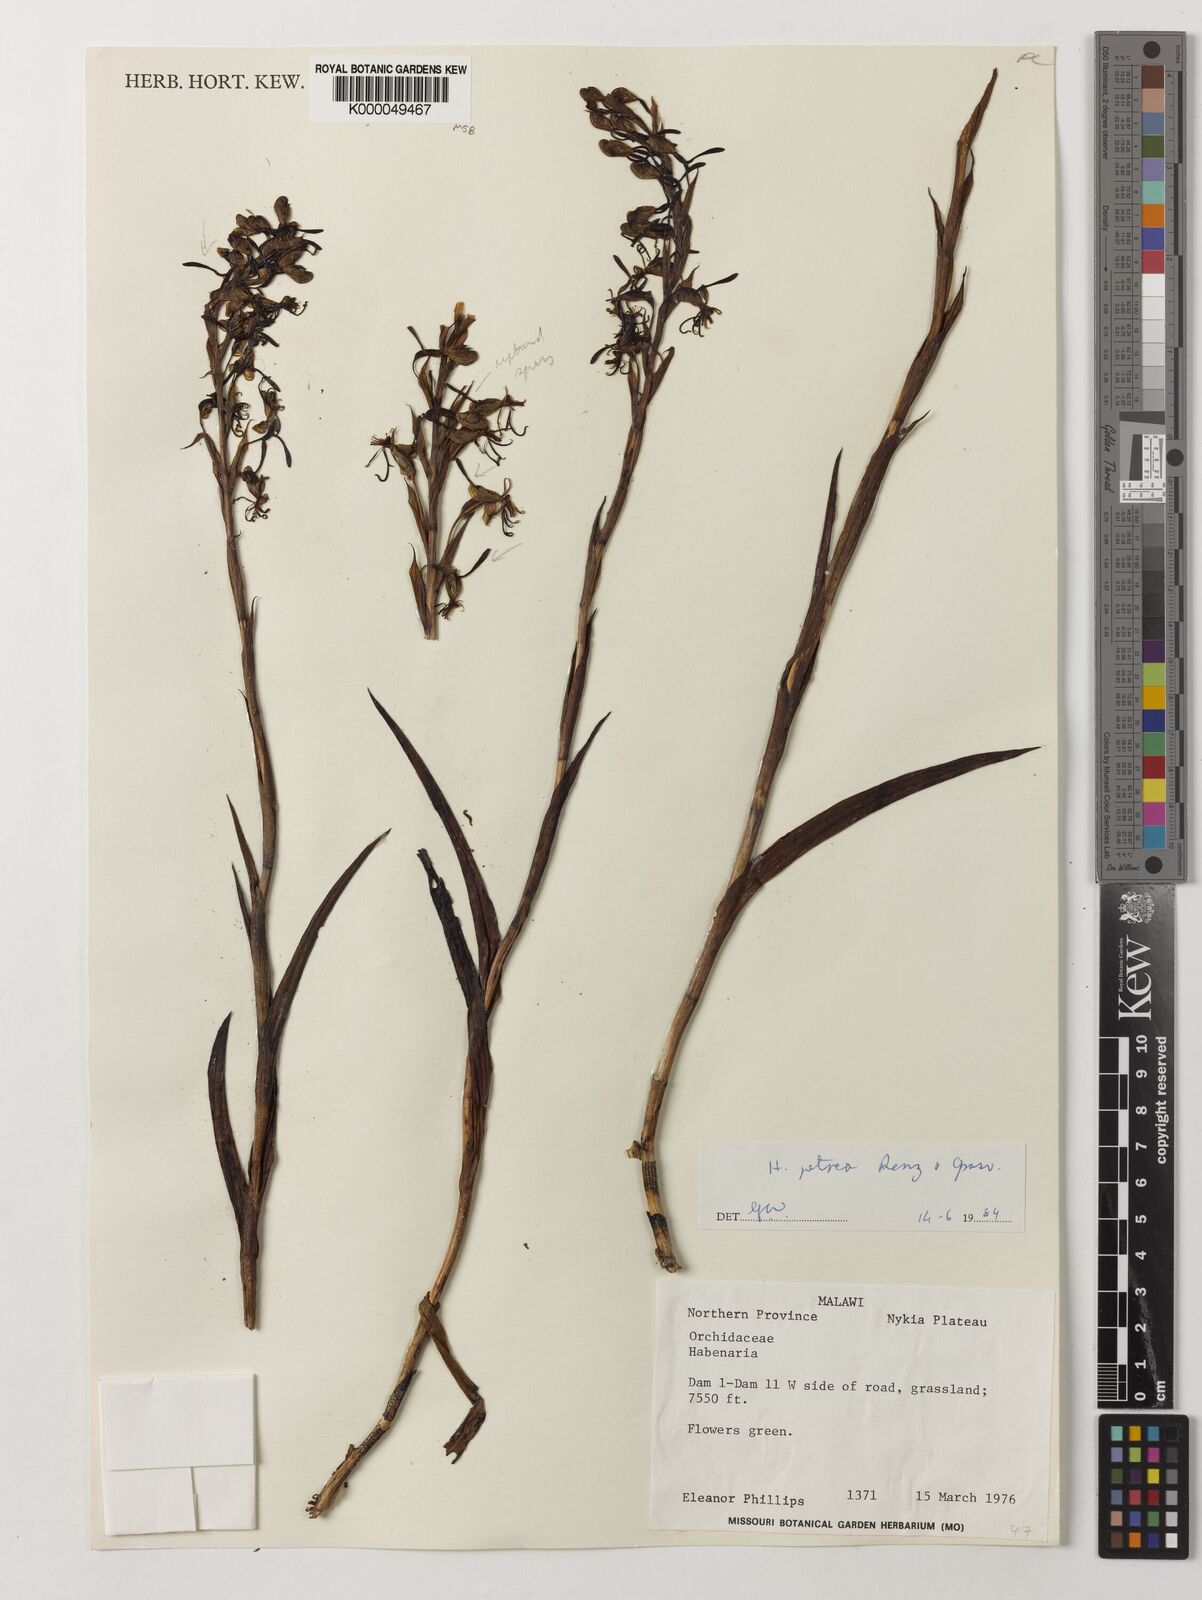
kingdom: Plantae
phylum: Tracheophyta
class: Liliopsida
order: Asparagales
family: Orchidaceae
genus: Habenaria
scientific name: Habenaria petraea
